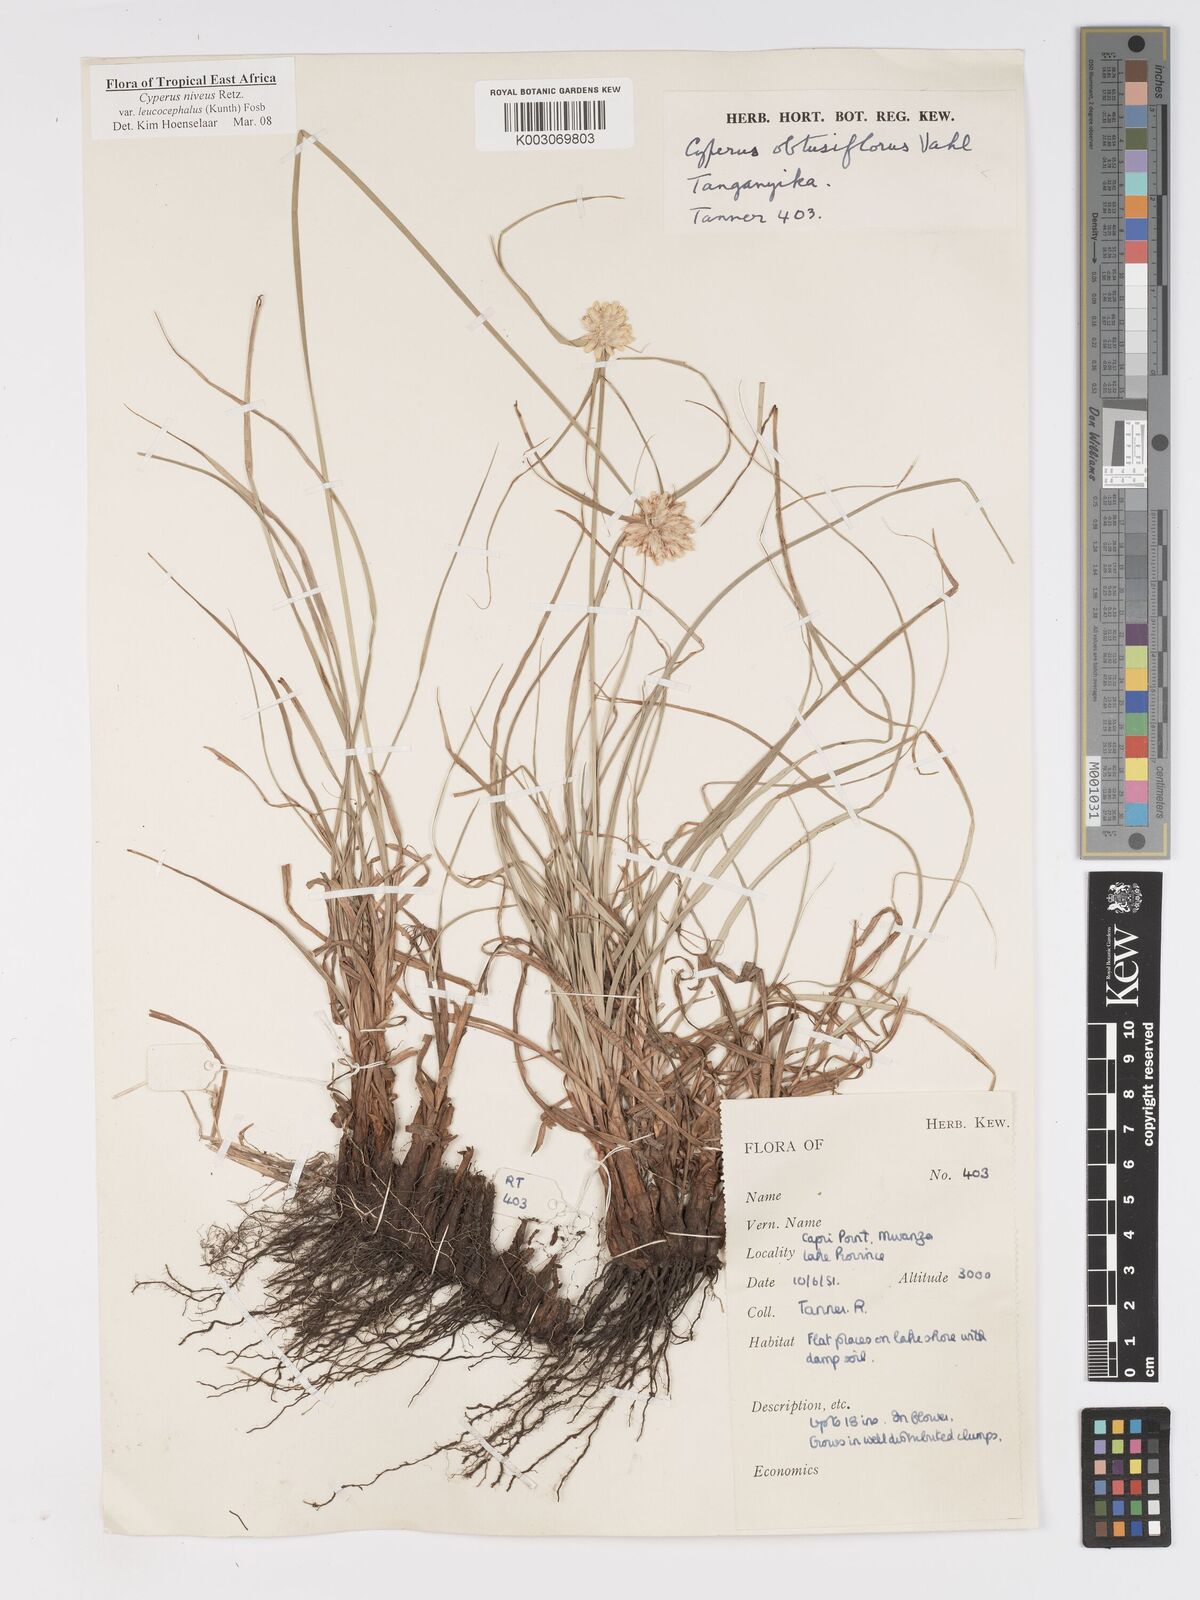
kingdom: Plantae
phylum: Tracheophyta
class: Liliopsida
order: Poales
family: Cyperaceae
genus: Cyperus
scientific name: Cyperus niveus
